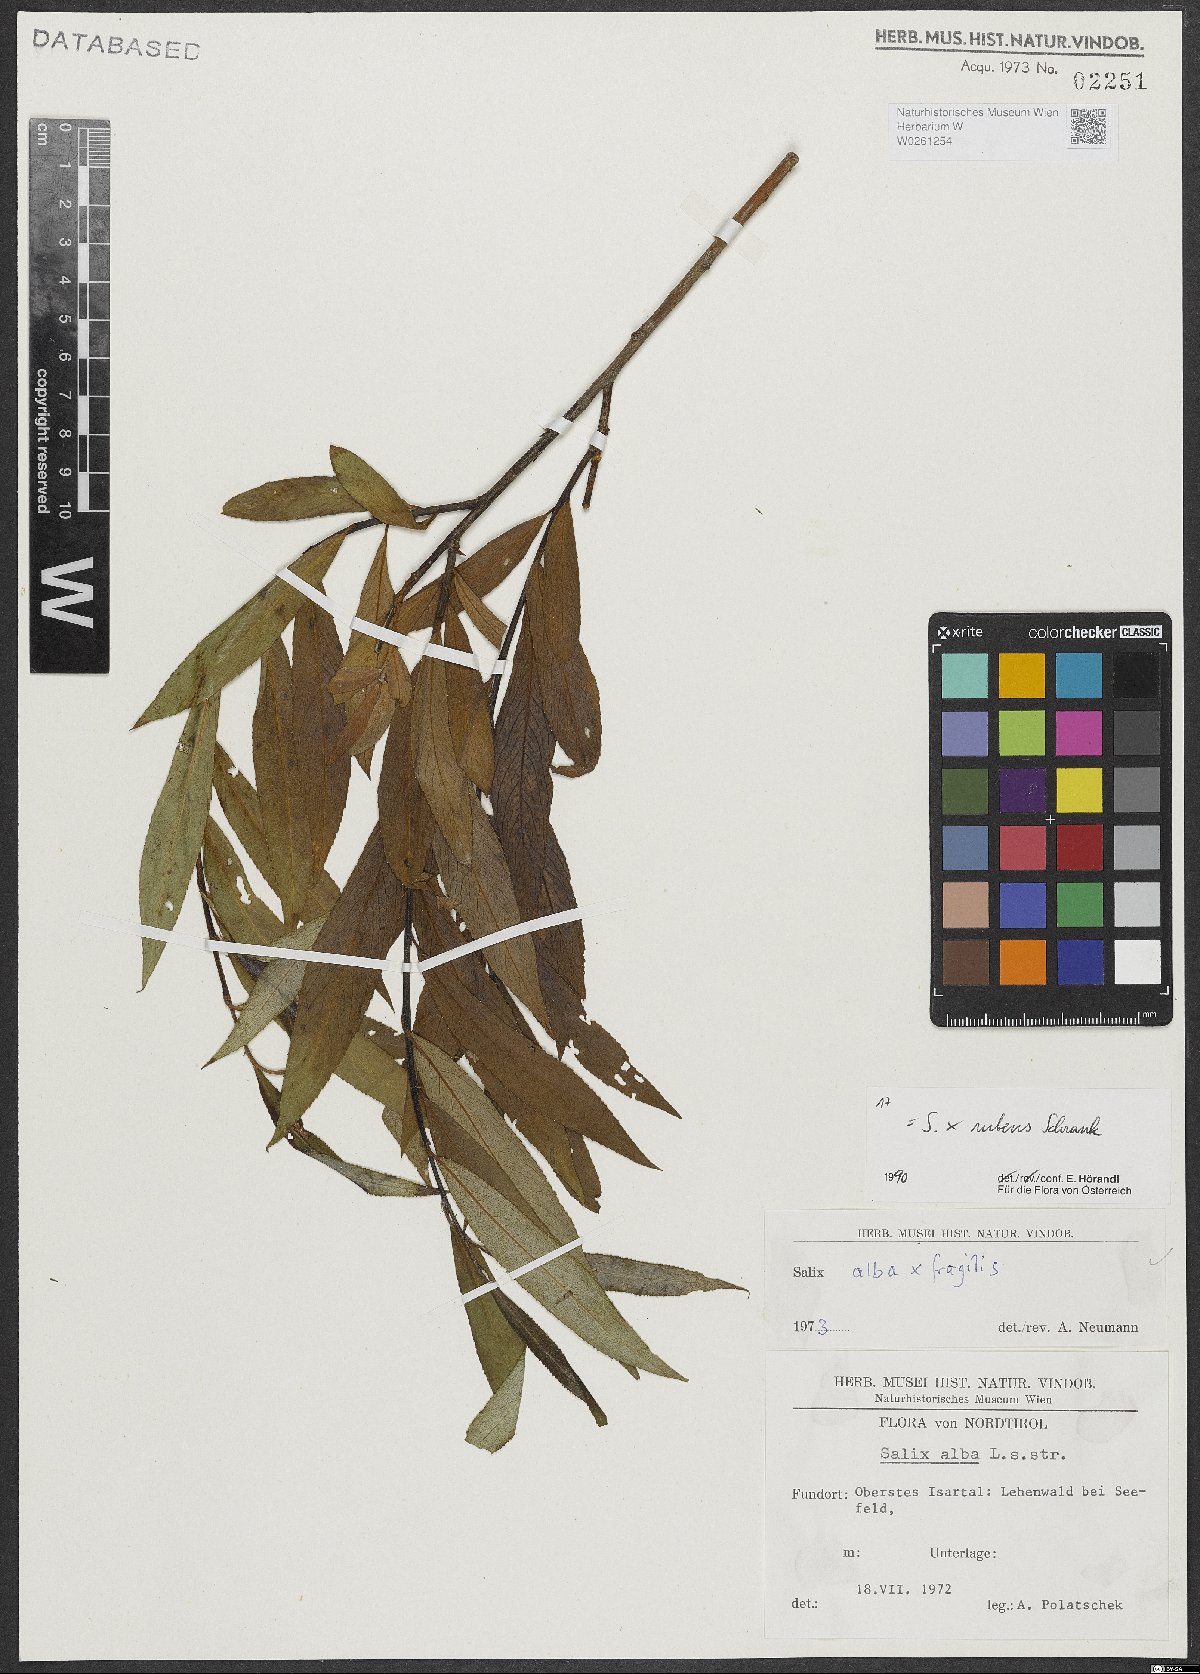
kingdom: Plantae
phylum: Tracheophyta
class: Magnoliopsida
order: Malpighiales
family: Salicaceae
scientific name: Salicaceae
